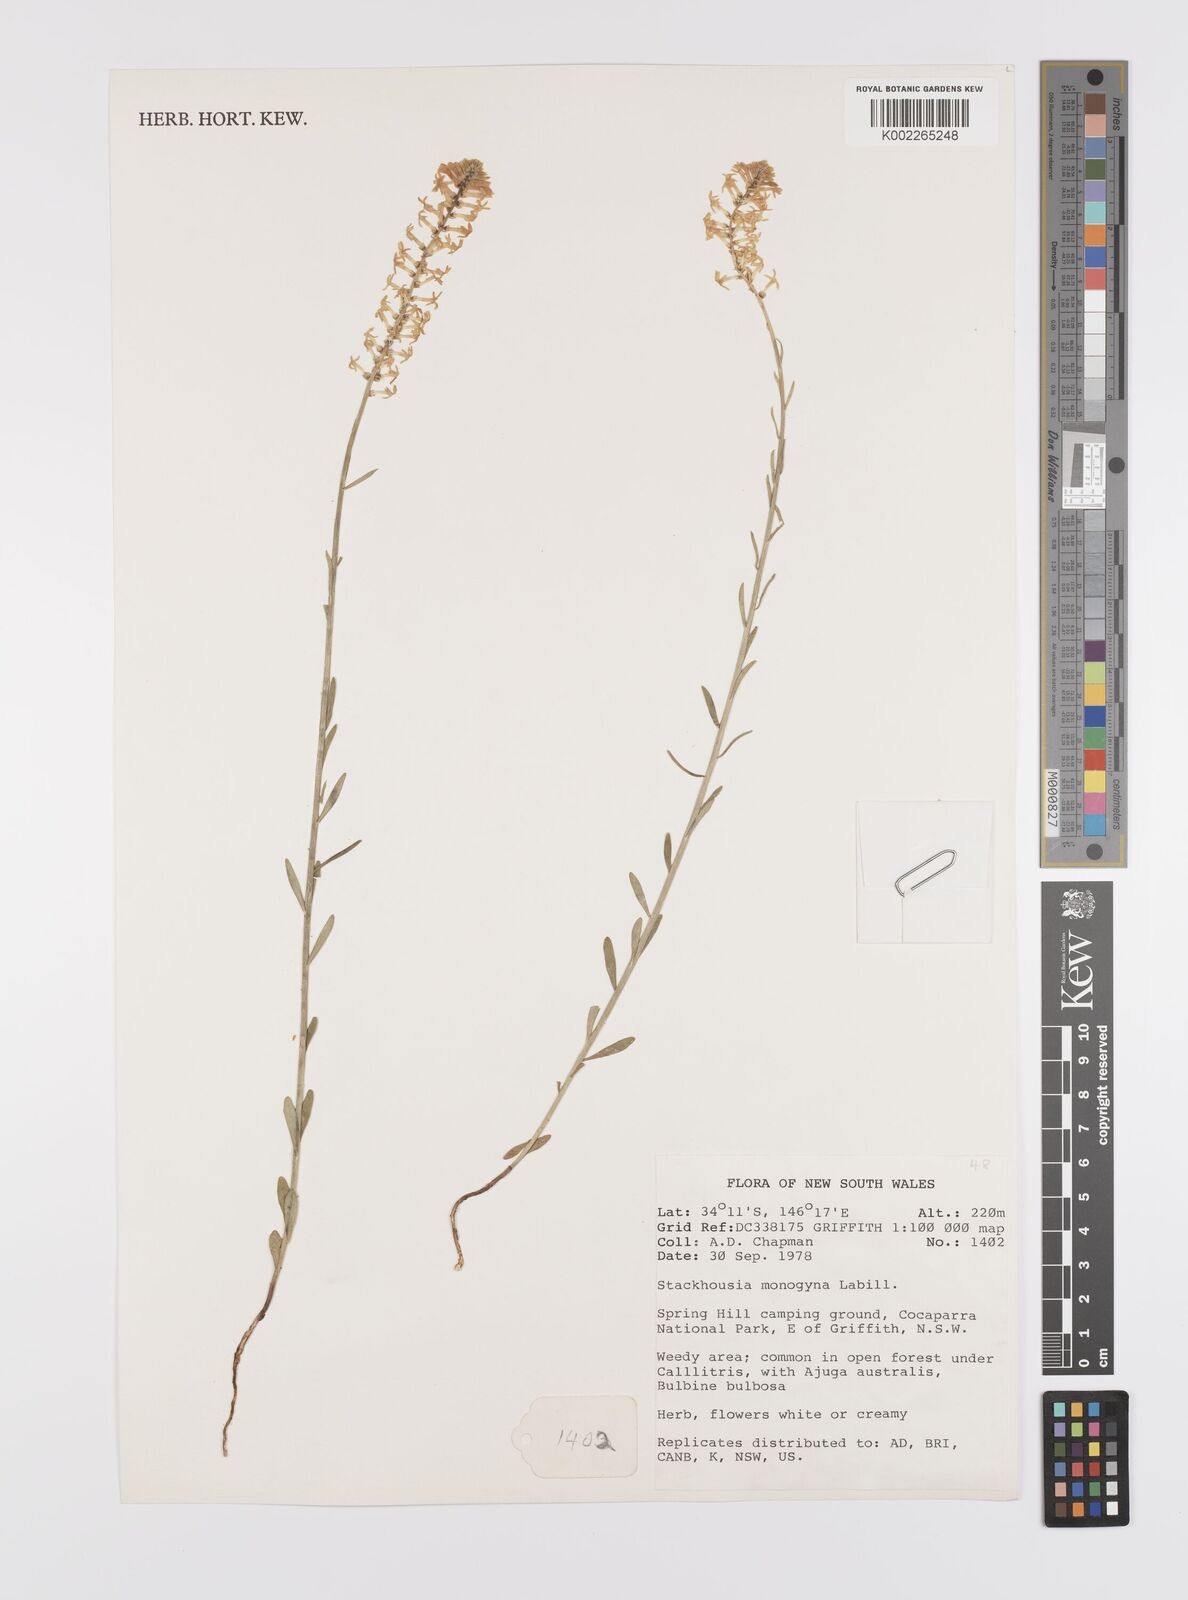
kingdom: Plantae
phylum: Tracheophyta
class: Magnoliopsida
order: Celastrales
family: Celastraceae
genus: Stackhousia
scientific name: Stackhousia monogyna
